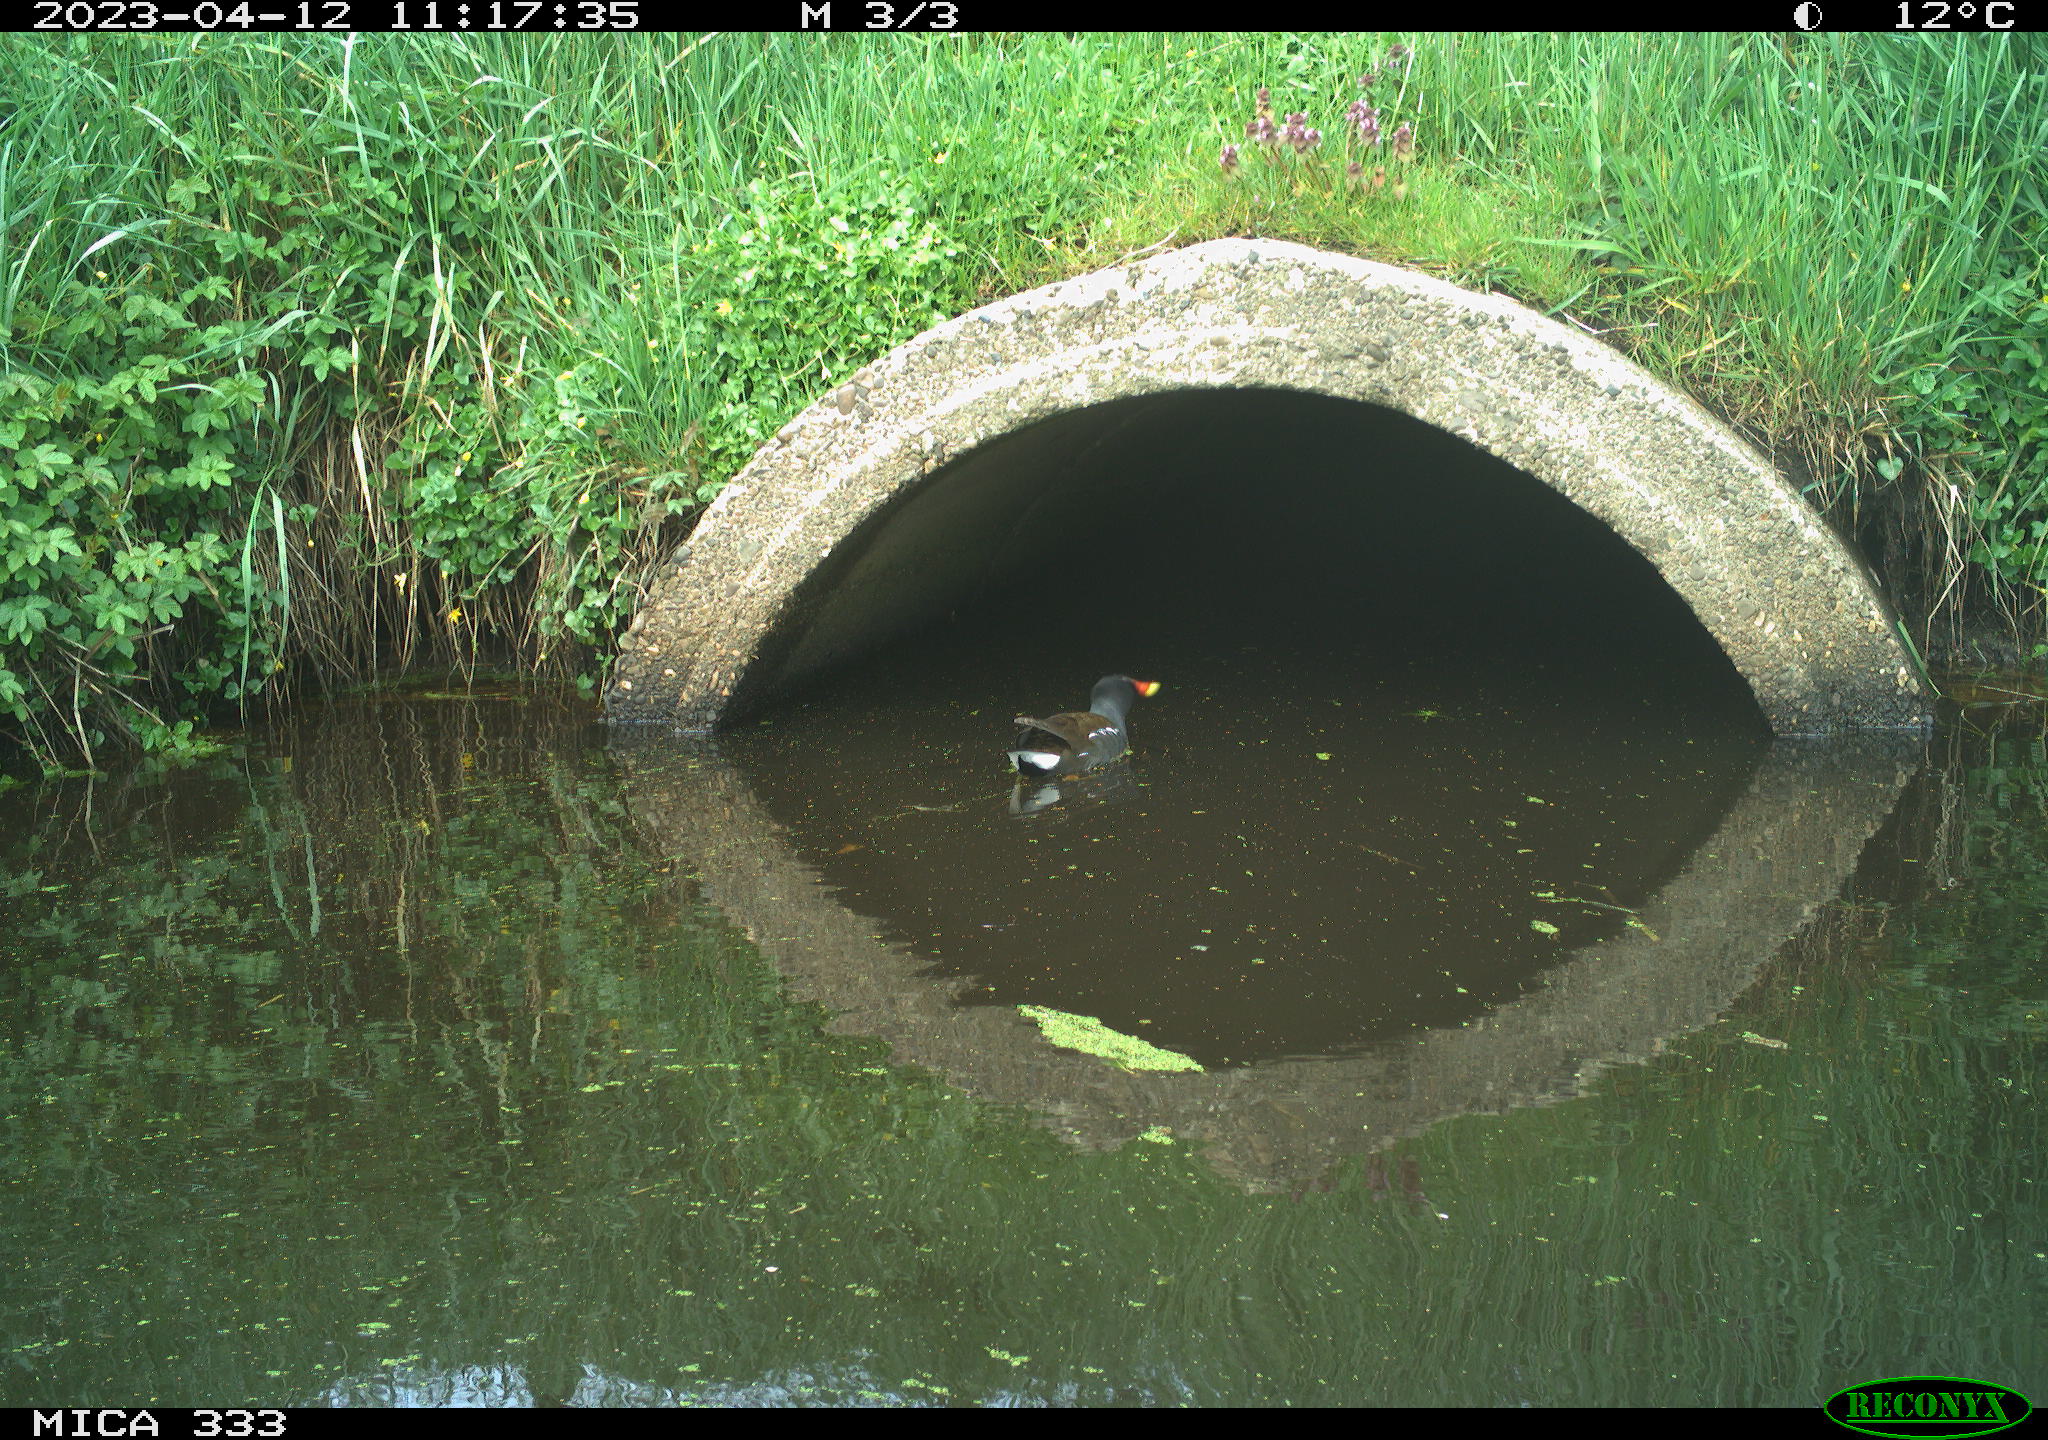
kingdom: Animalia
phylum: Chordata
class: Aves
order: Gruiformes
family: Rallidae
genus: Gallinula
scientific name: Gallinula chloropus
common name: Common moorhen
